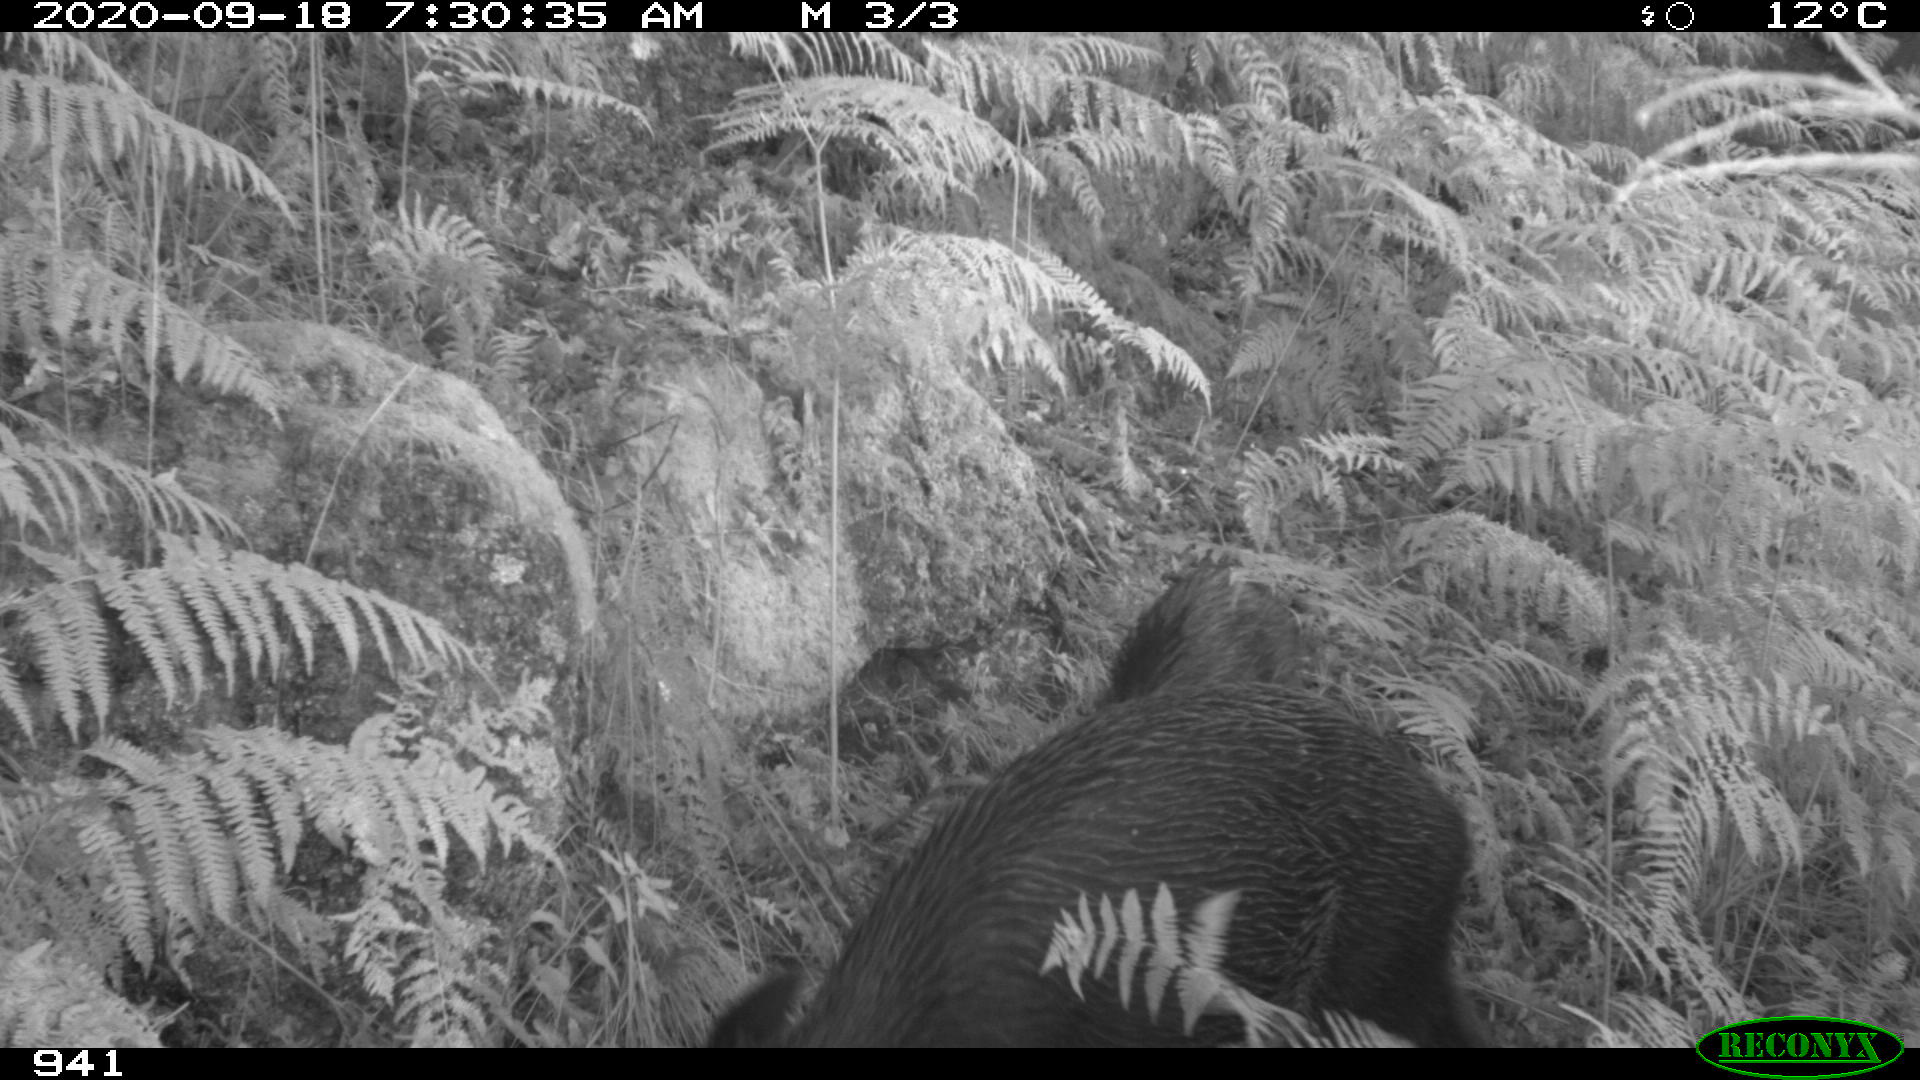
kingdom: Animalia
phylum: Chordata
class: Mammalia
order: Artiodactyla
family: Suidae
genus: Sus
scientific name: Sus scrofa
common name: Wild boar
